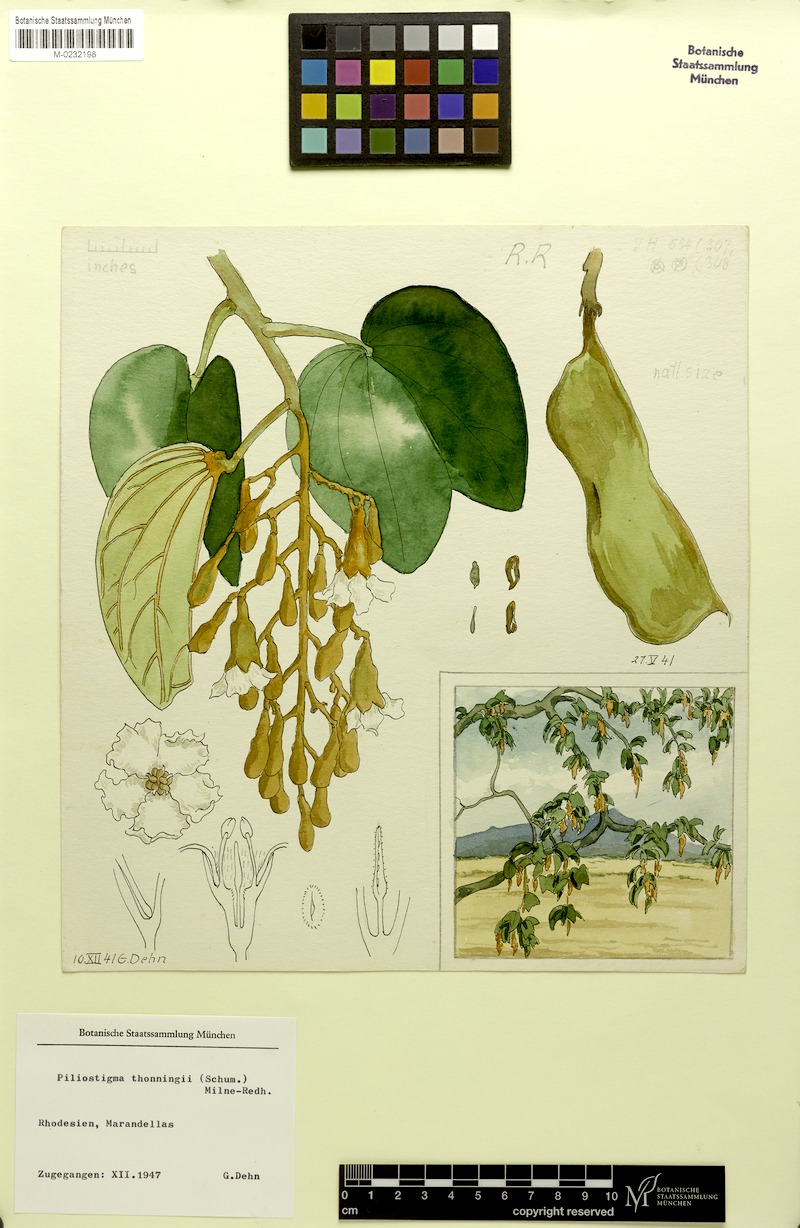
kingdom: Plantae
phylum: Tracheophyta
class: Magnoliopsida
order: Fabales
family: Fabaceae
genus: Piliostigma
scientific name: Piliostigma thonningii
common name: Kao
